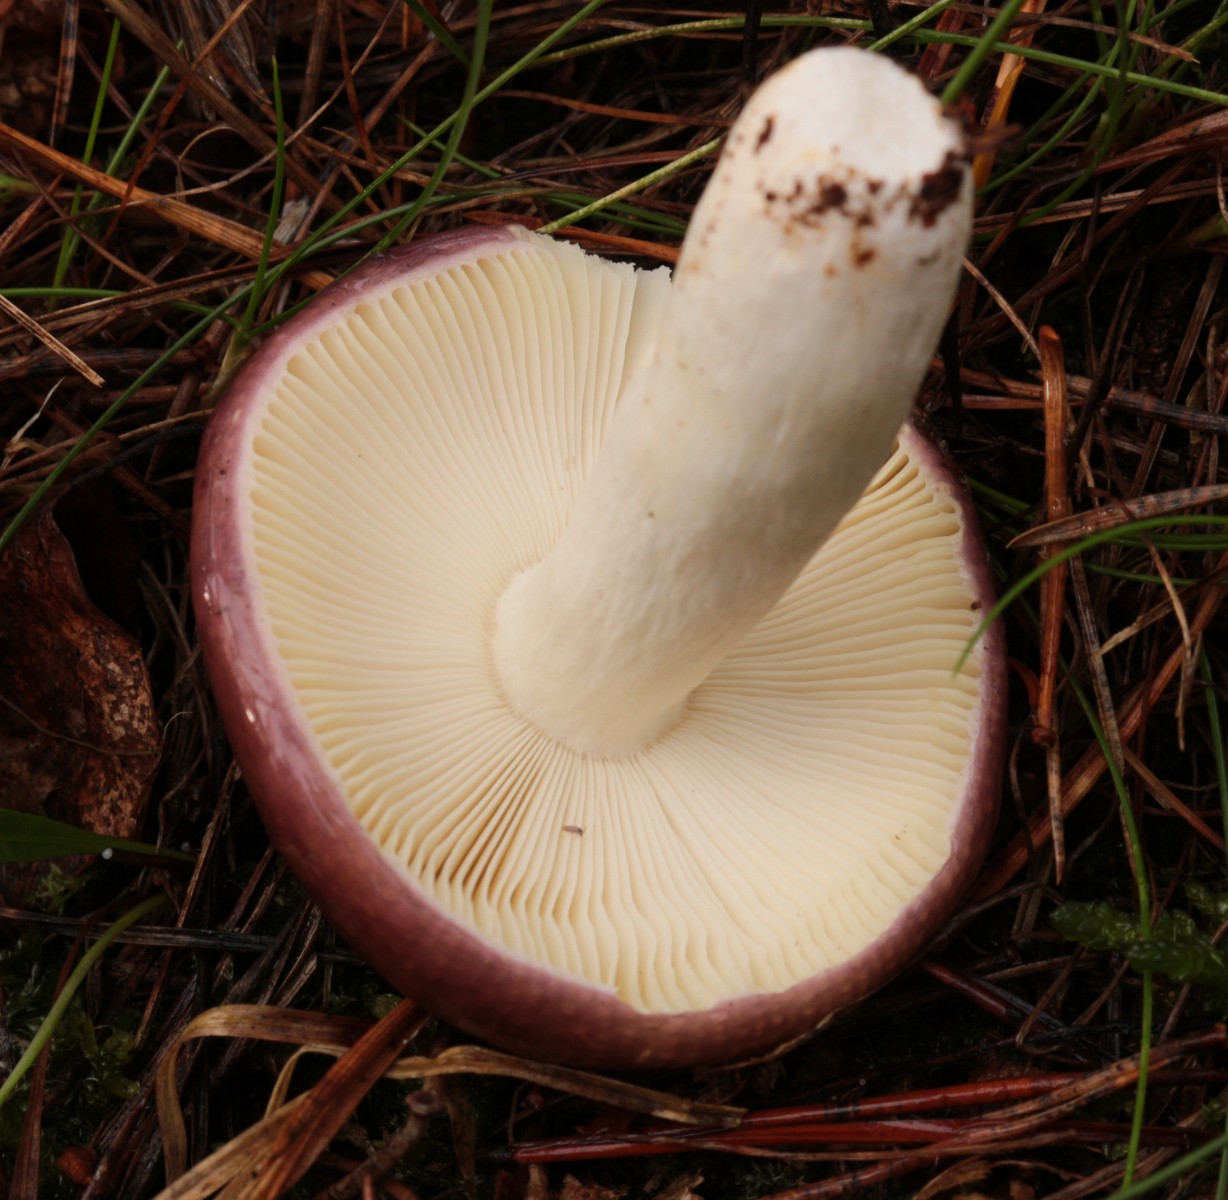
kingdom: Fungi
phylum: Basidiomycota
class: Agaricomycetes
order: Russulales
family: Russulaceae
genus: Russula
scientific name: Russula caerulea
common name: puklet skørhat
